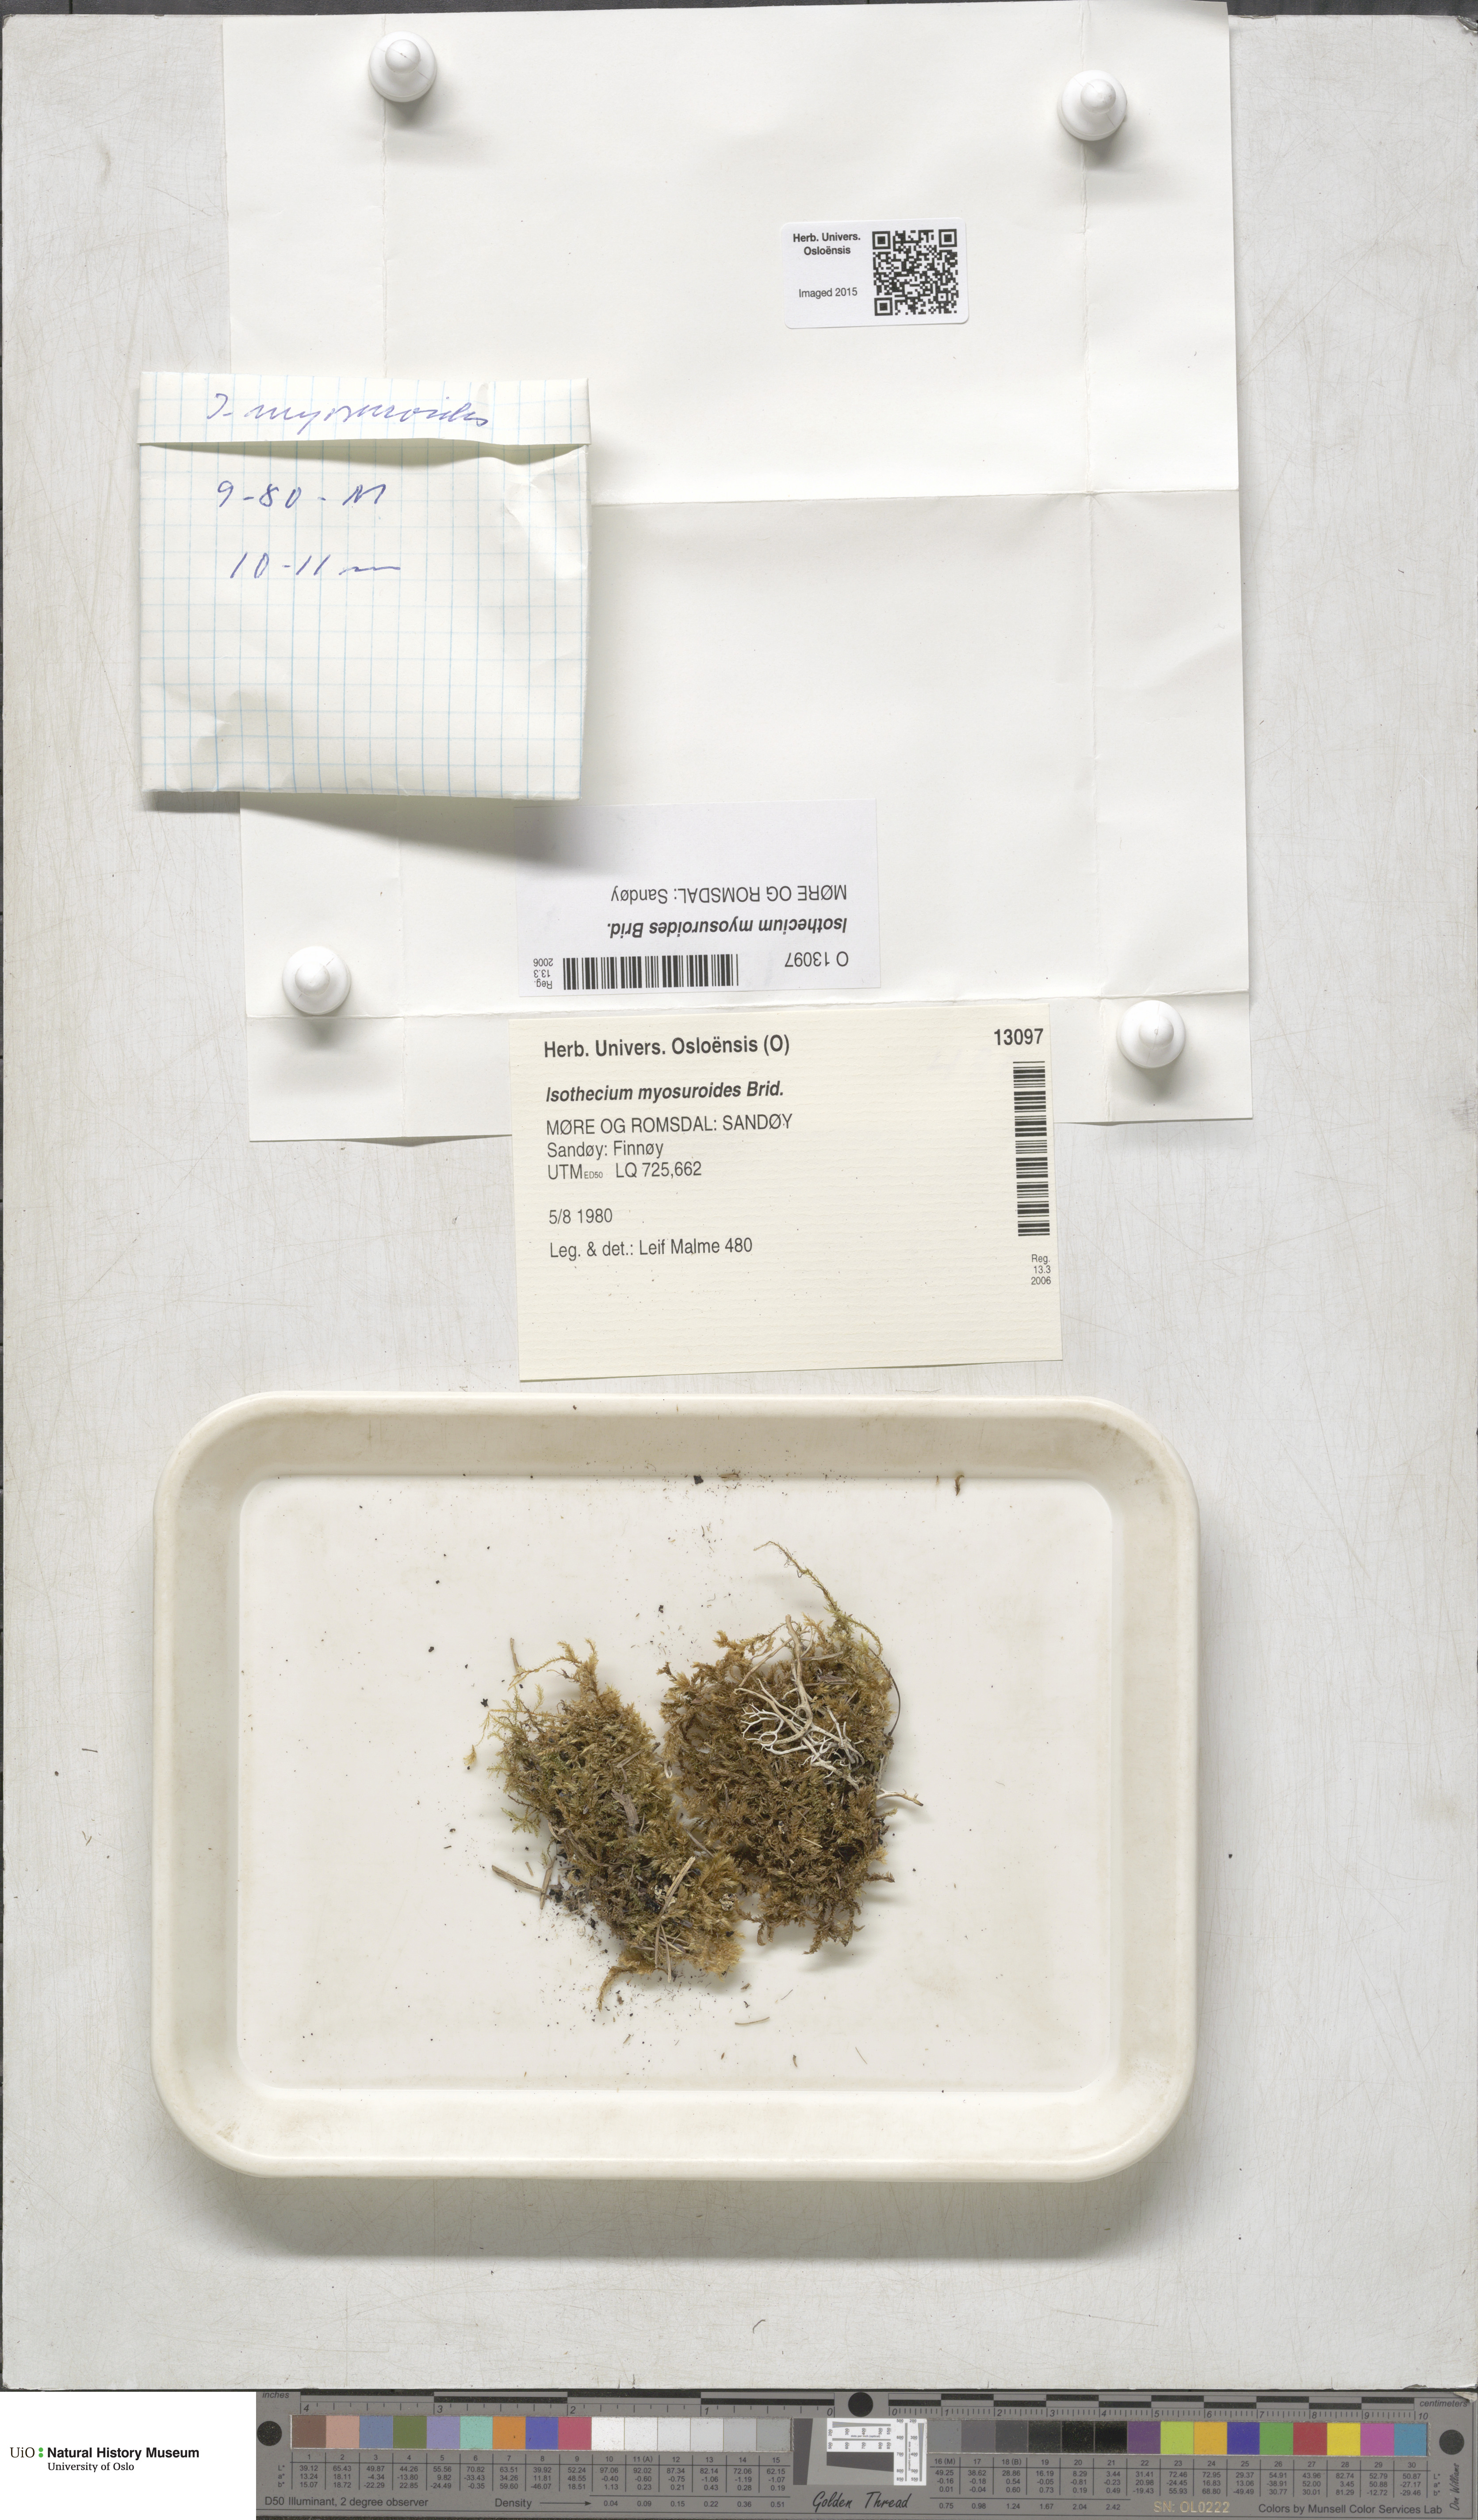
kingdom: Plantae
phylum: Bryophyta
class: Bryopsida
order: Hypnales
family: Lembophyllaceae
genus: Pseudisothecium
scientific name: Pseudisothecium myosuroides
